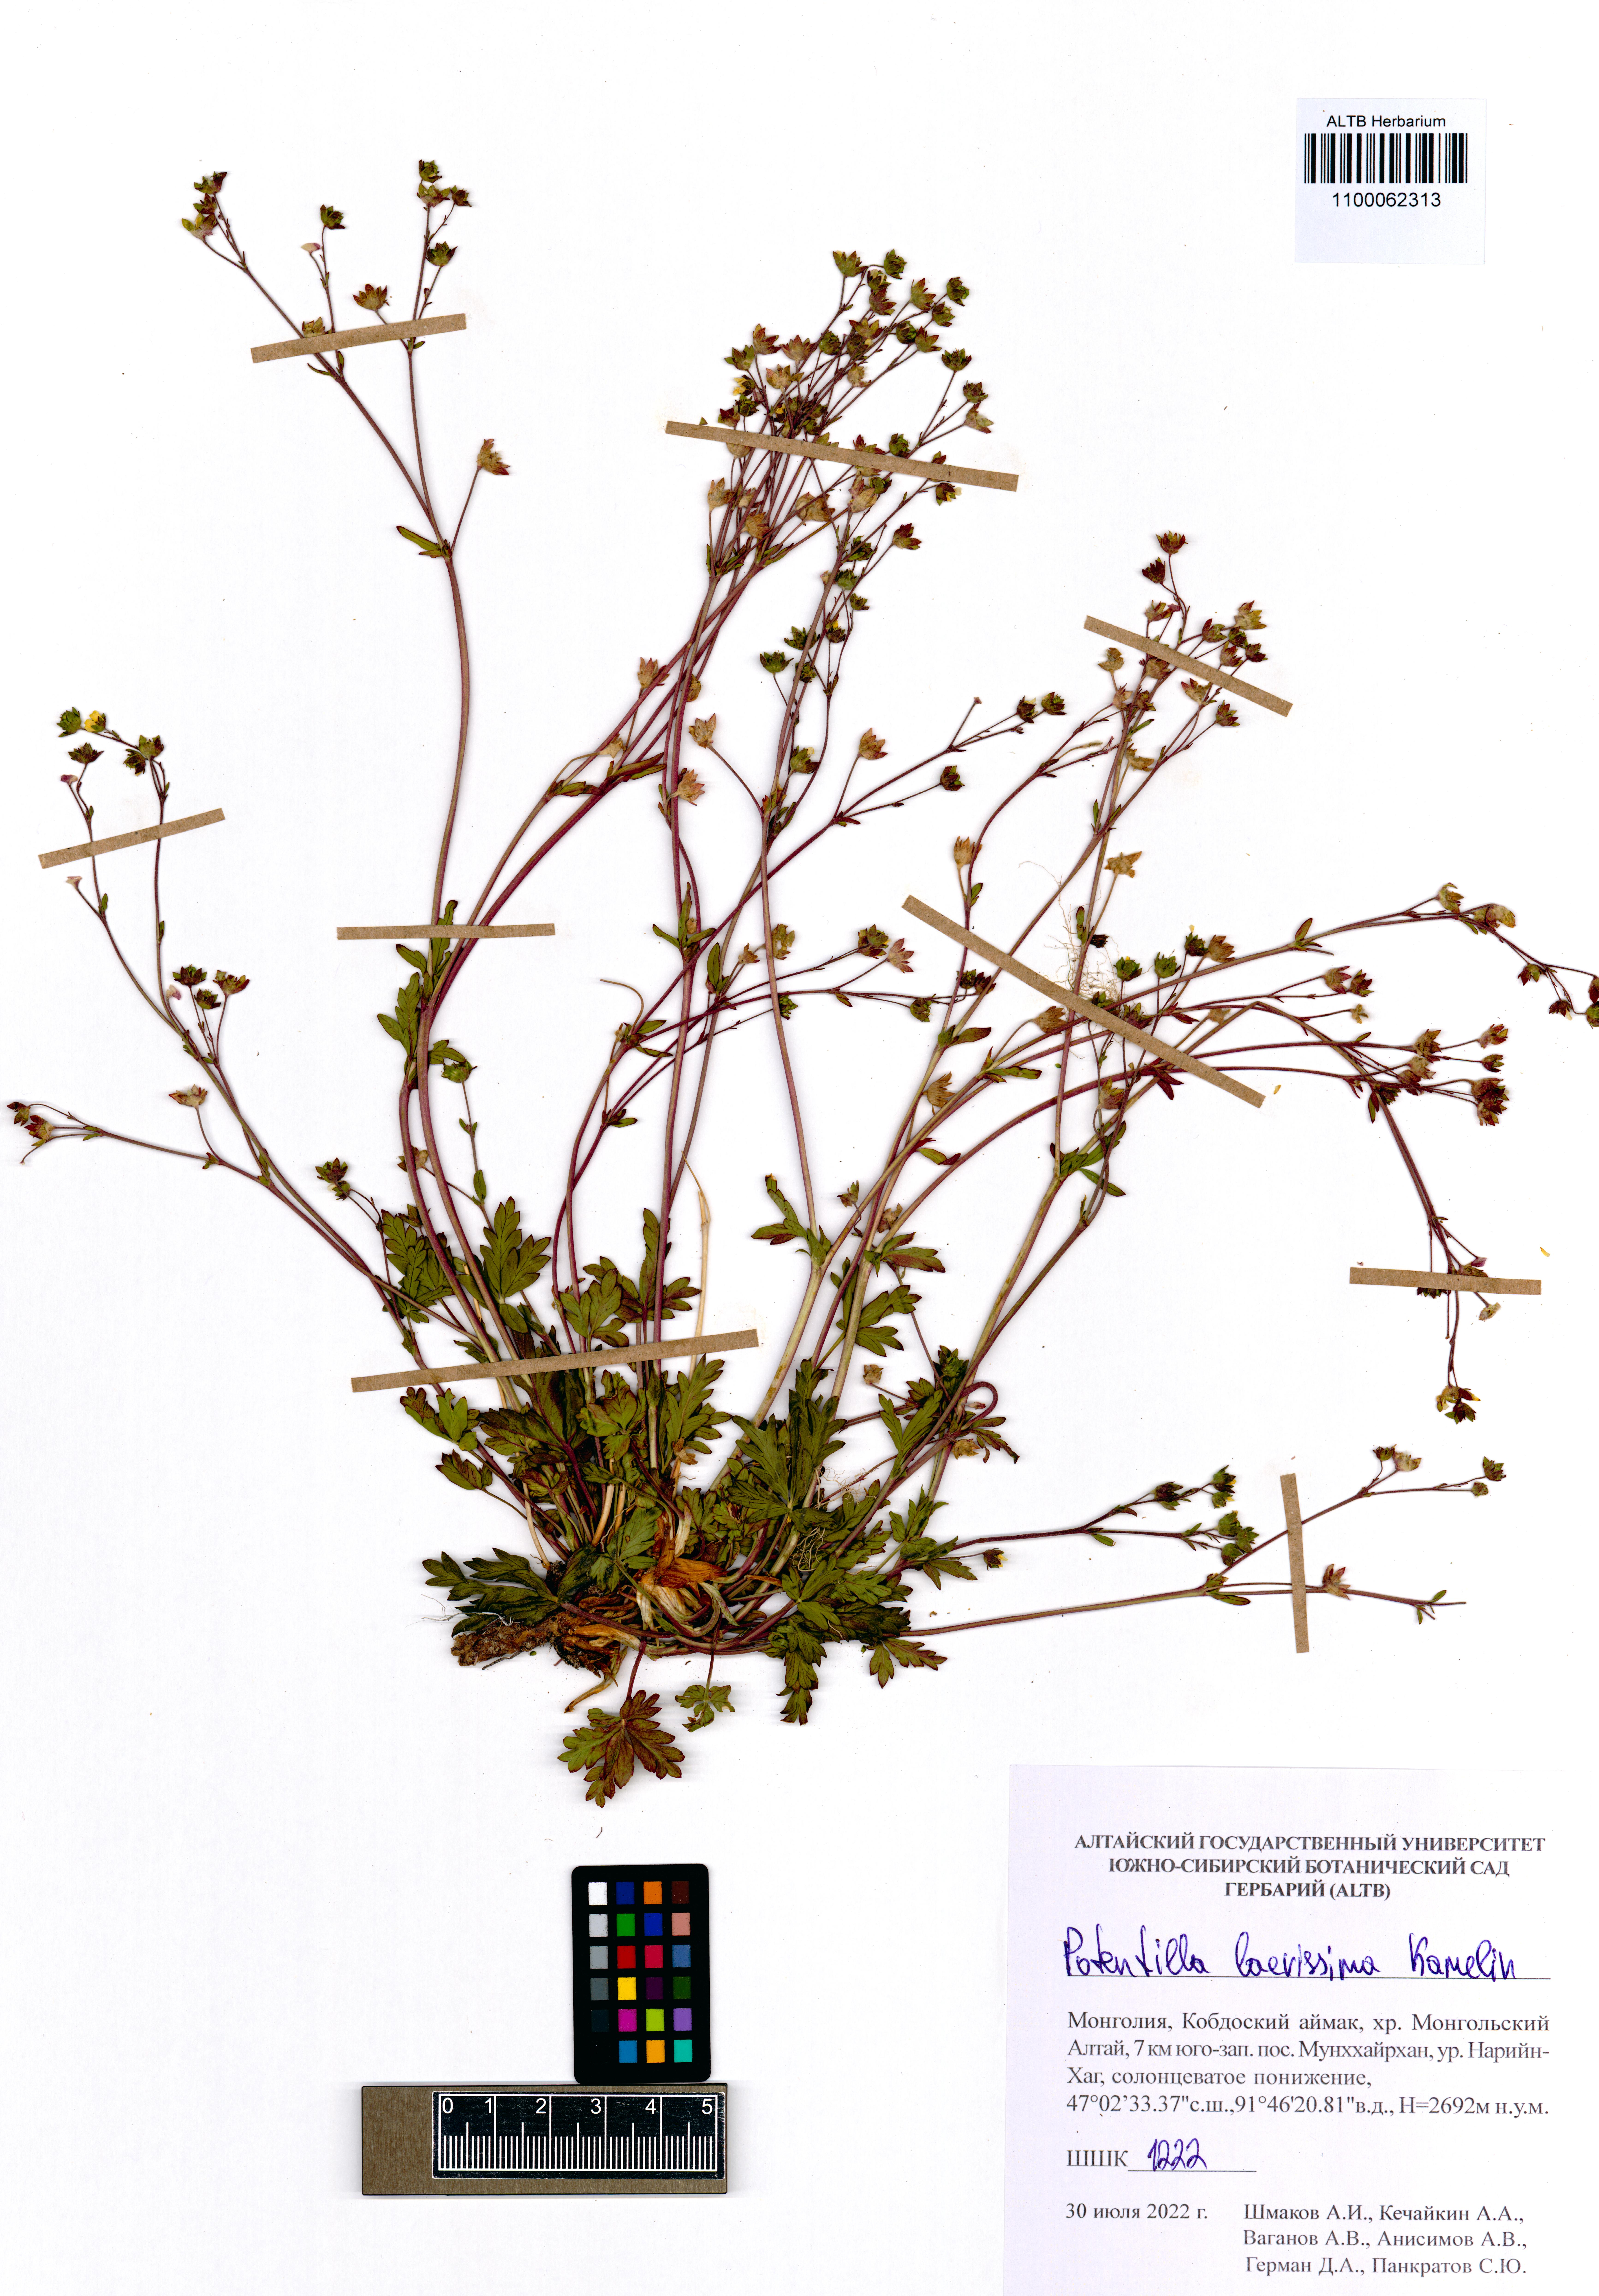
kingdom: Plantae
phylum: Tracheophyta
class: Magnoliopsida
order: Rosales
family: Rosaceae
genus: Potentilla
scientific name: Potentilla laevissima
